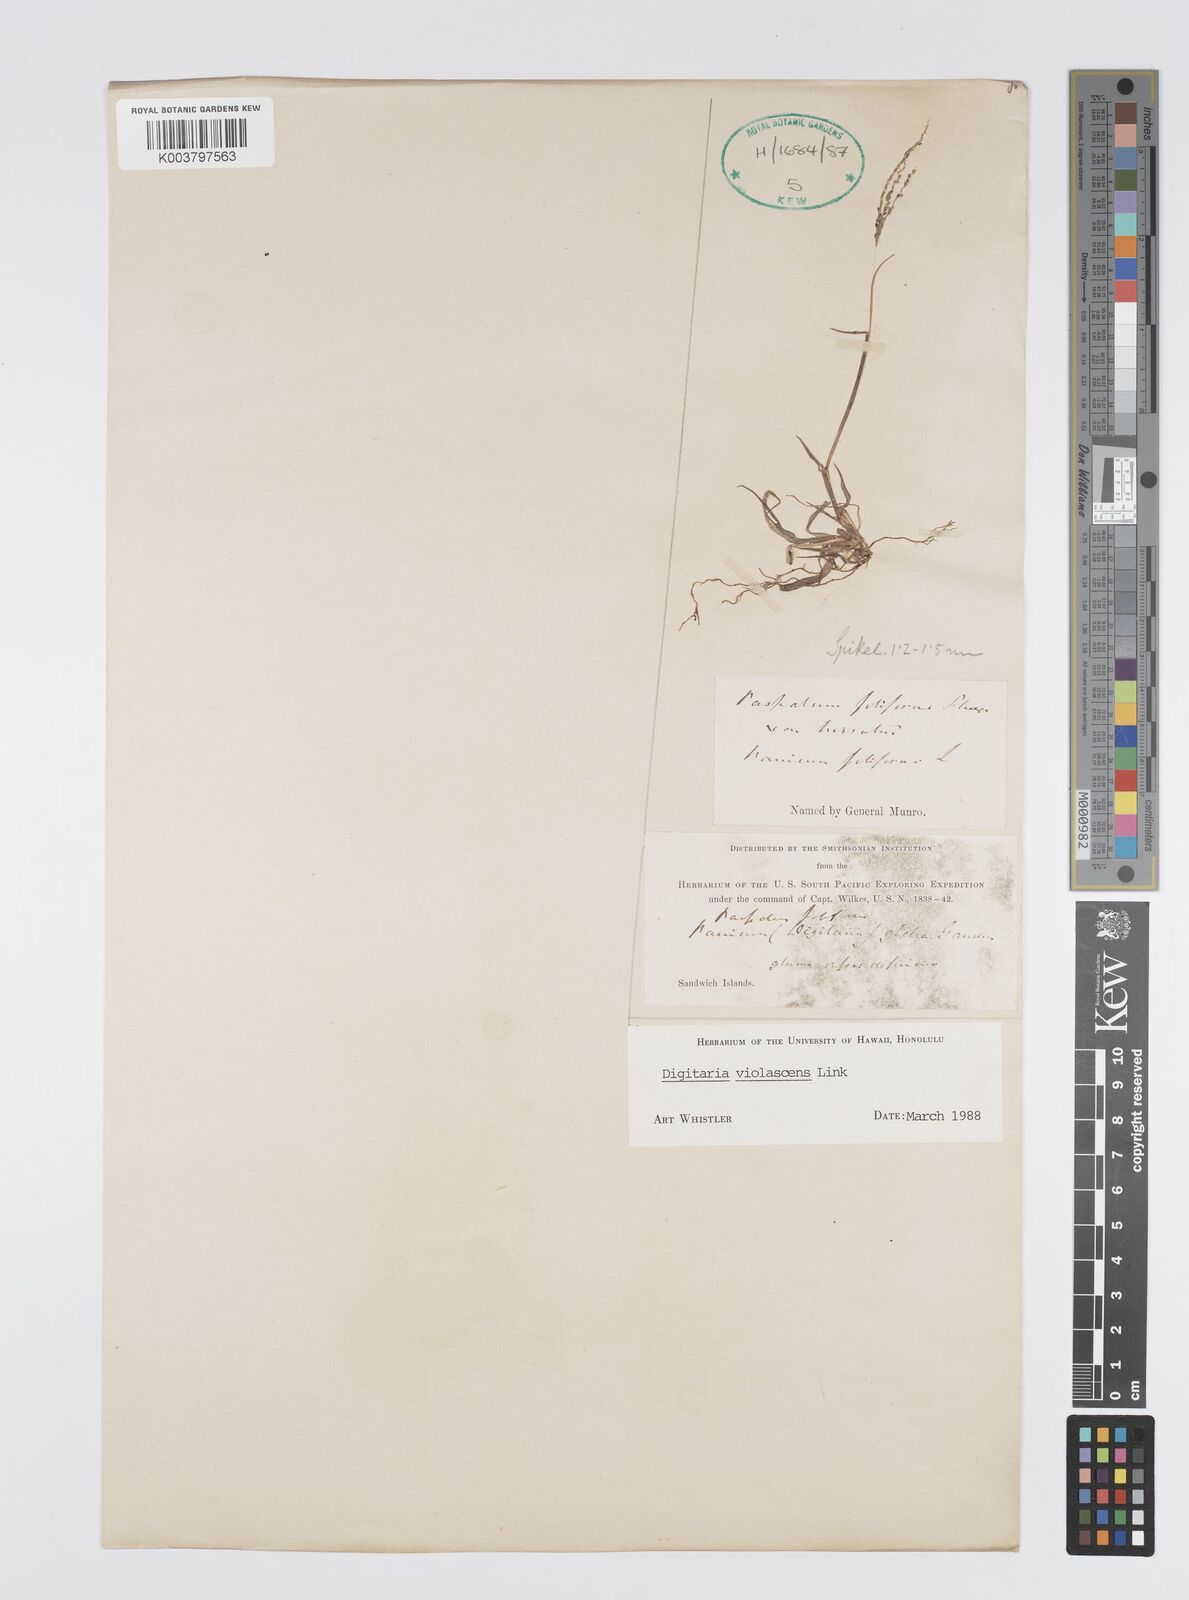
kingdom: Plantae
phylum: Tracheophyta
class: Liliopsida
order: Poales
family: Poaceae
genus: Digitaria
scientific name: Digitaria violascens
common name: Violet crabgrass
